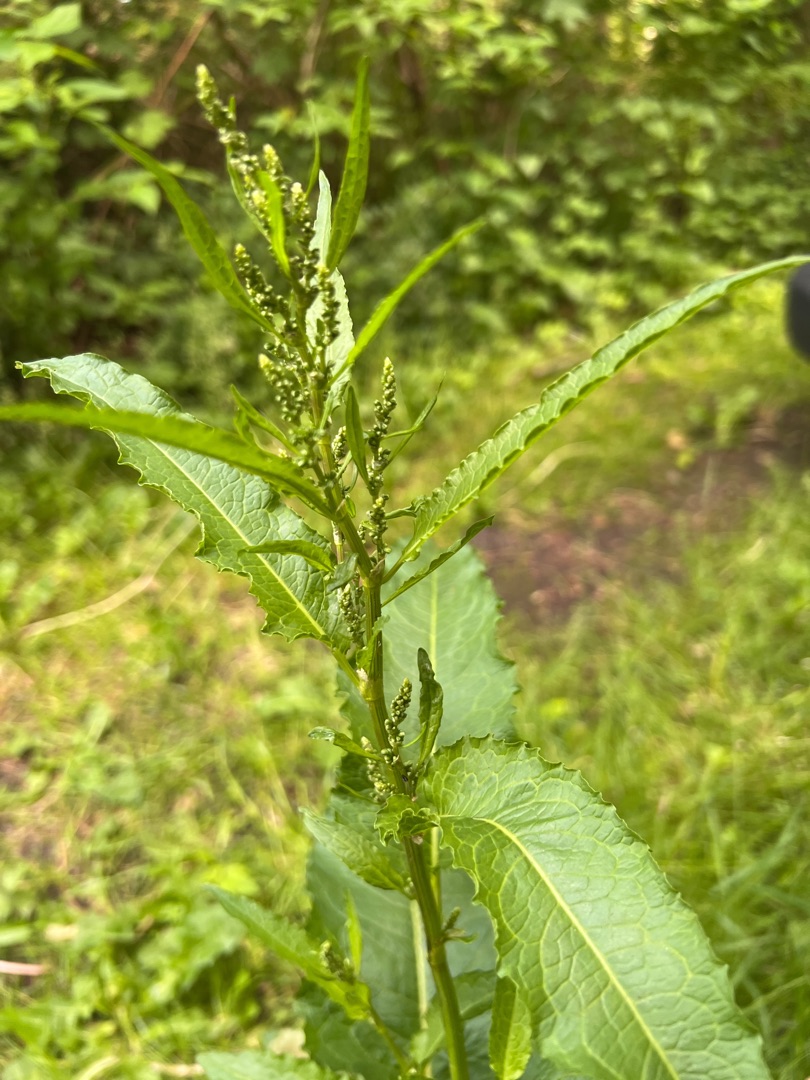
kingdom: Plantae
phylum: Tracheophyta
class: Magnoliopsida
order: Caryophyllales
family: Polygonaceae
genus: Rumex
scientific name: Rumex obtusifolius
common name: Butbladet skræppe
